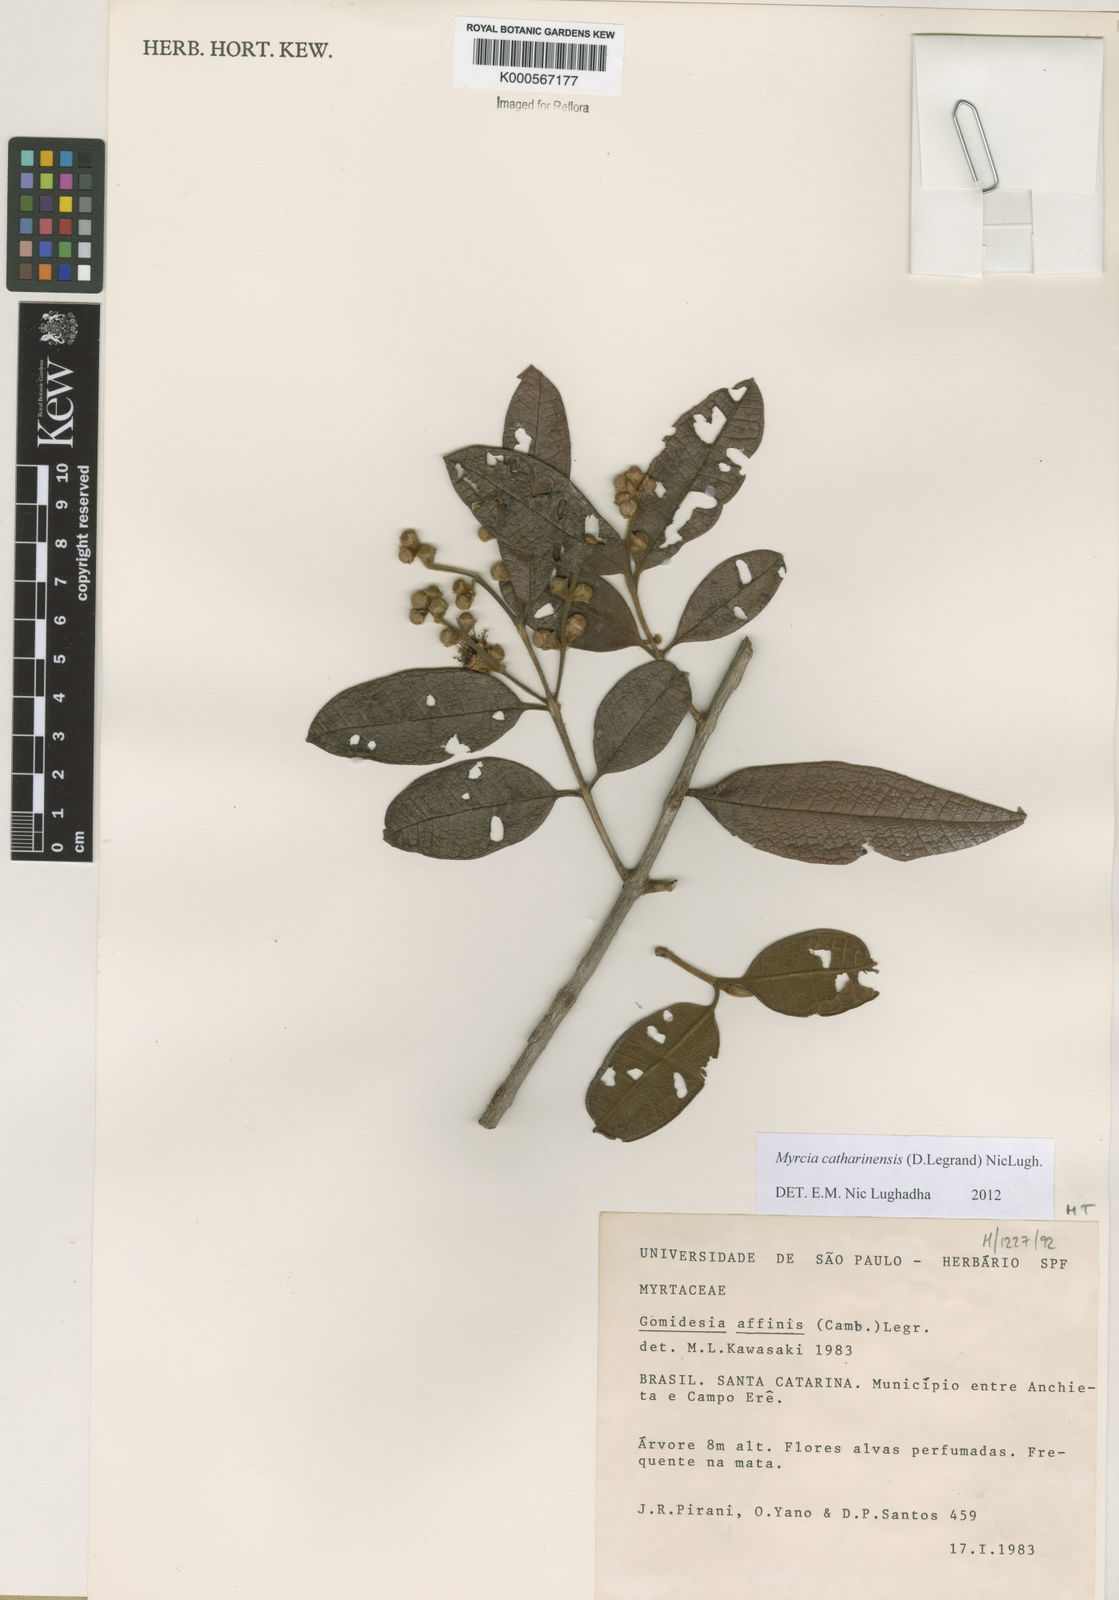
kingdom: Plantae
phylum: Tracheophyta
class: Magnoliopsida
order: Myrtales
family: Myrtaceae
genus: Myrcia
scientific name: Myrcia catharinensis
